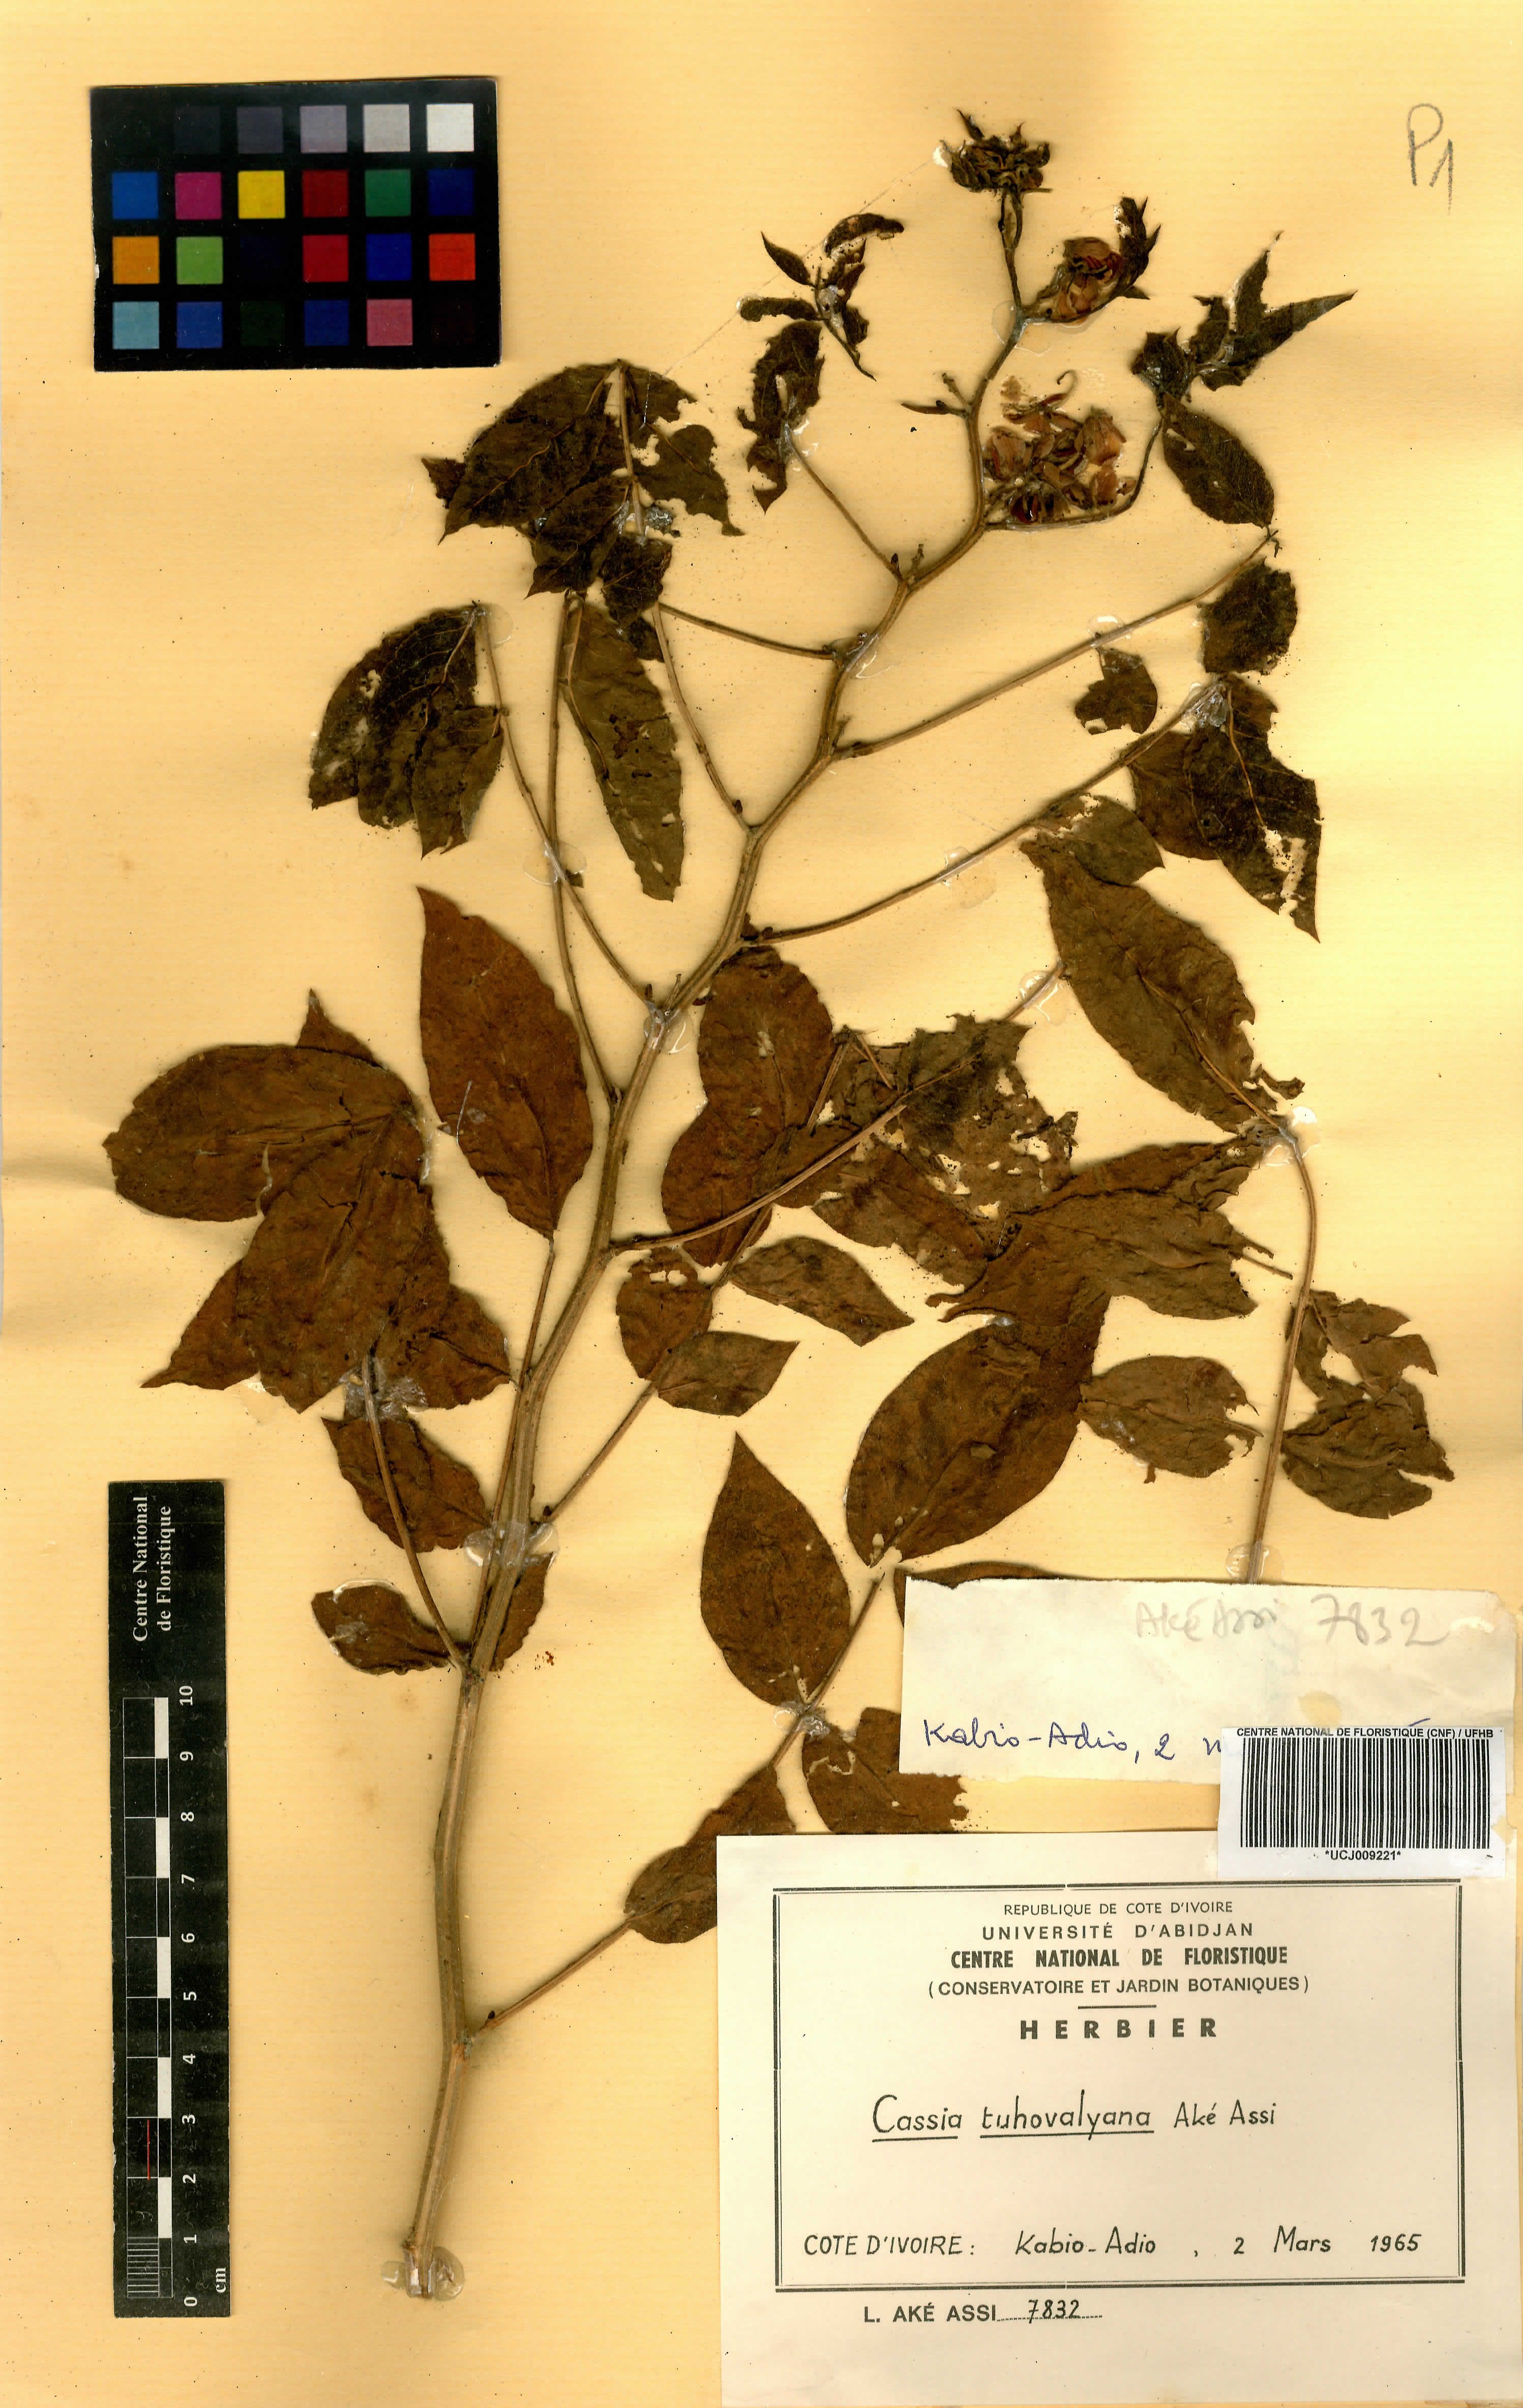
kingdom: Plantae
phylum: Tracheophyta
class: Magnoliopsida
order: Fabales
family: Fabaceae
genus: Senna
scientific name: Senna tuhovalyana
